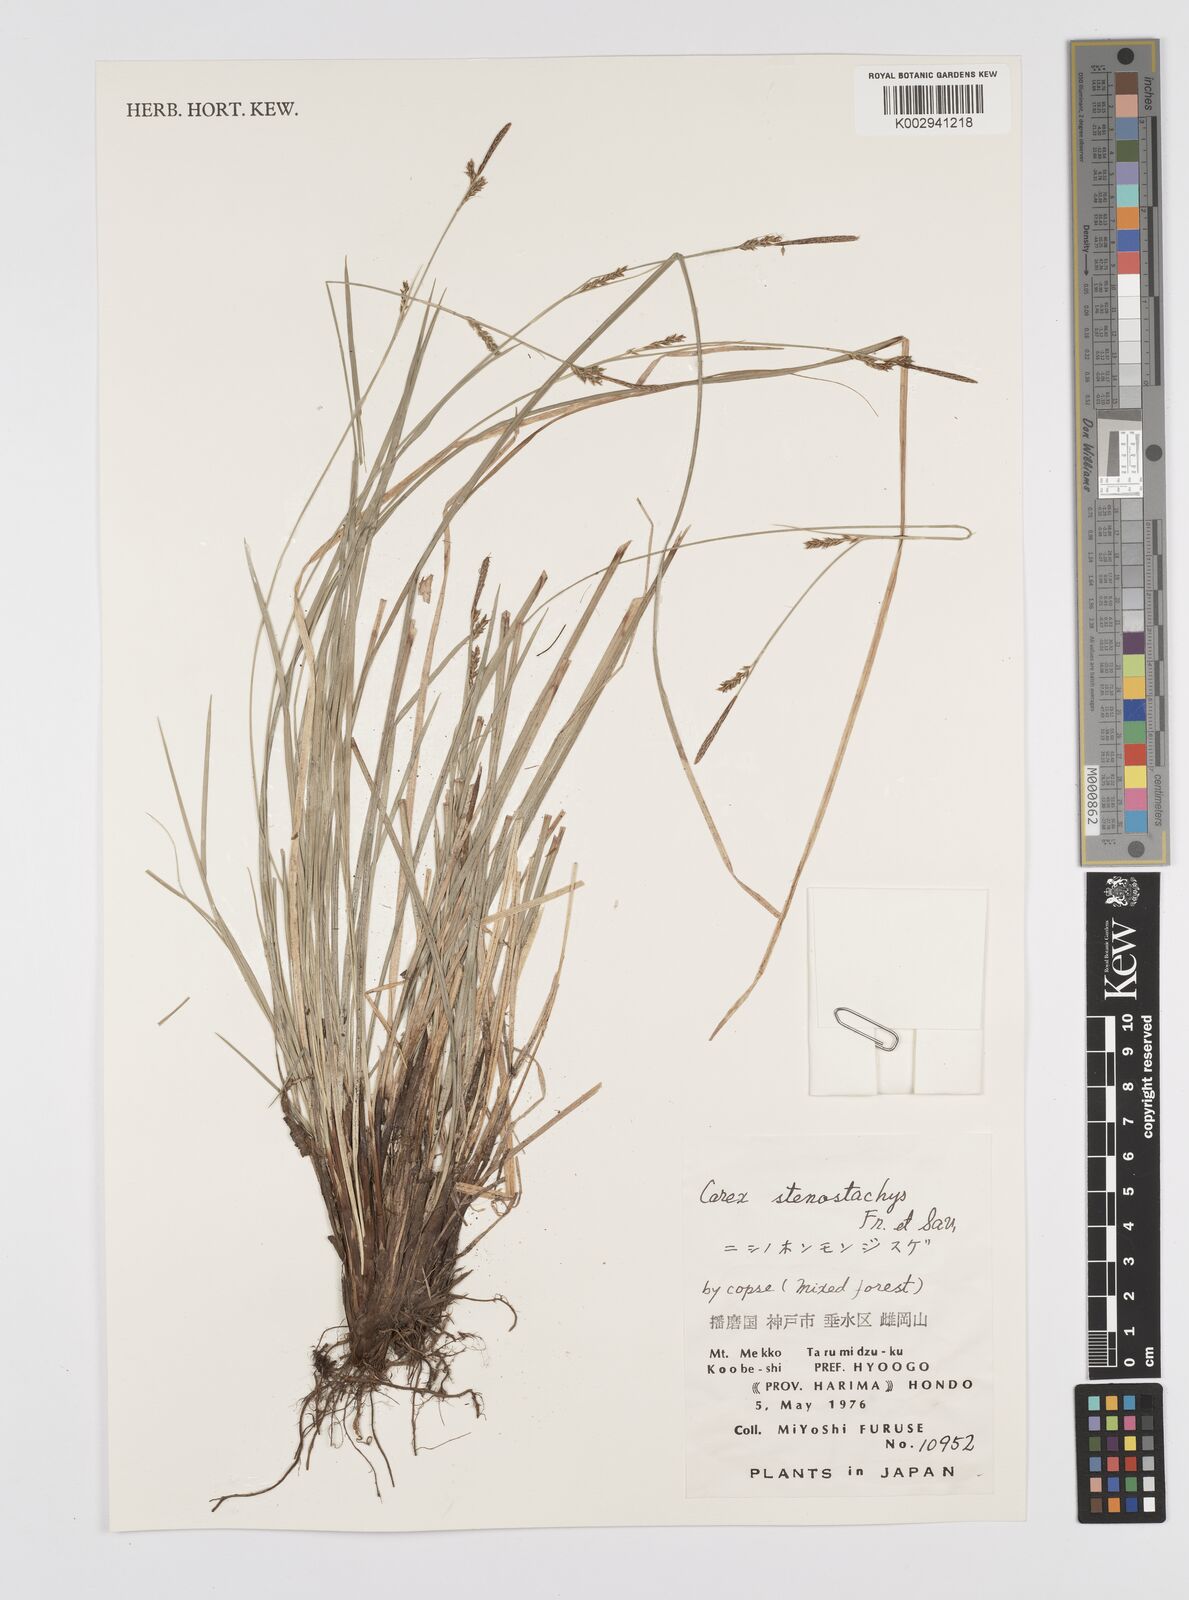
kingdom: Plantae
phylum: Tracheophyta
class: Liliopsida
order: Poales
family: Cyperaceae
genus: Carex
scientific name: Carex pisiformis
